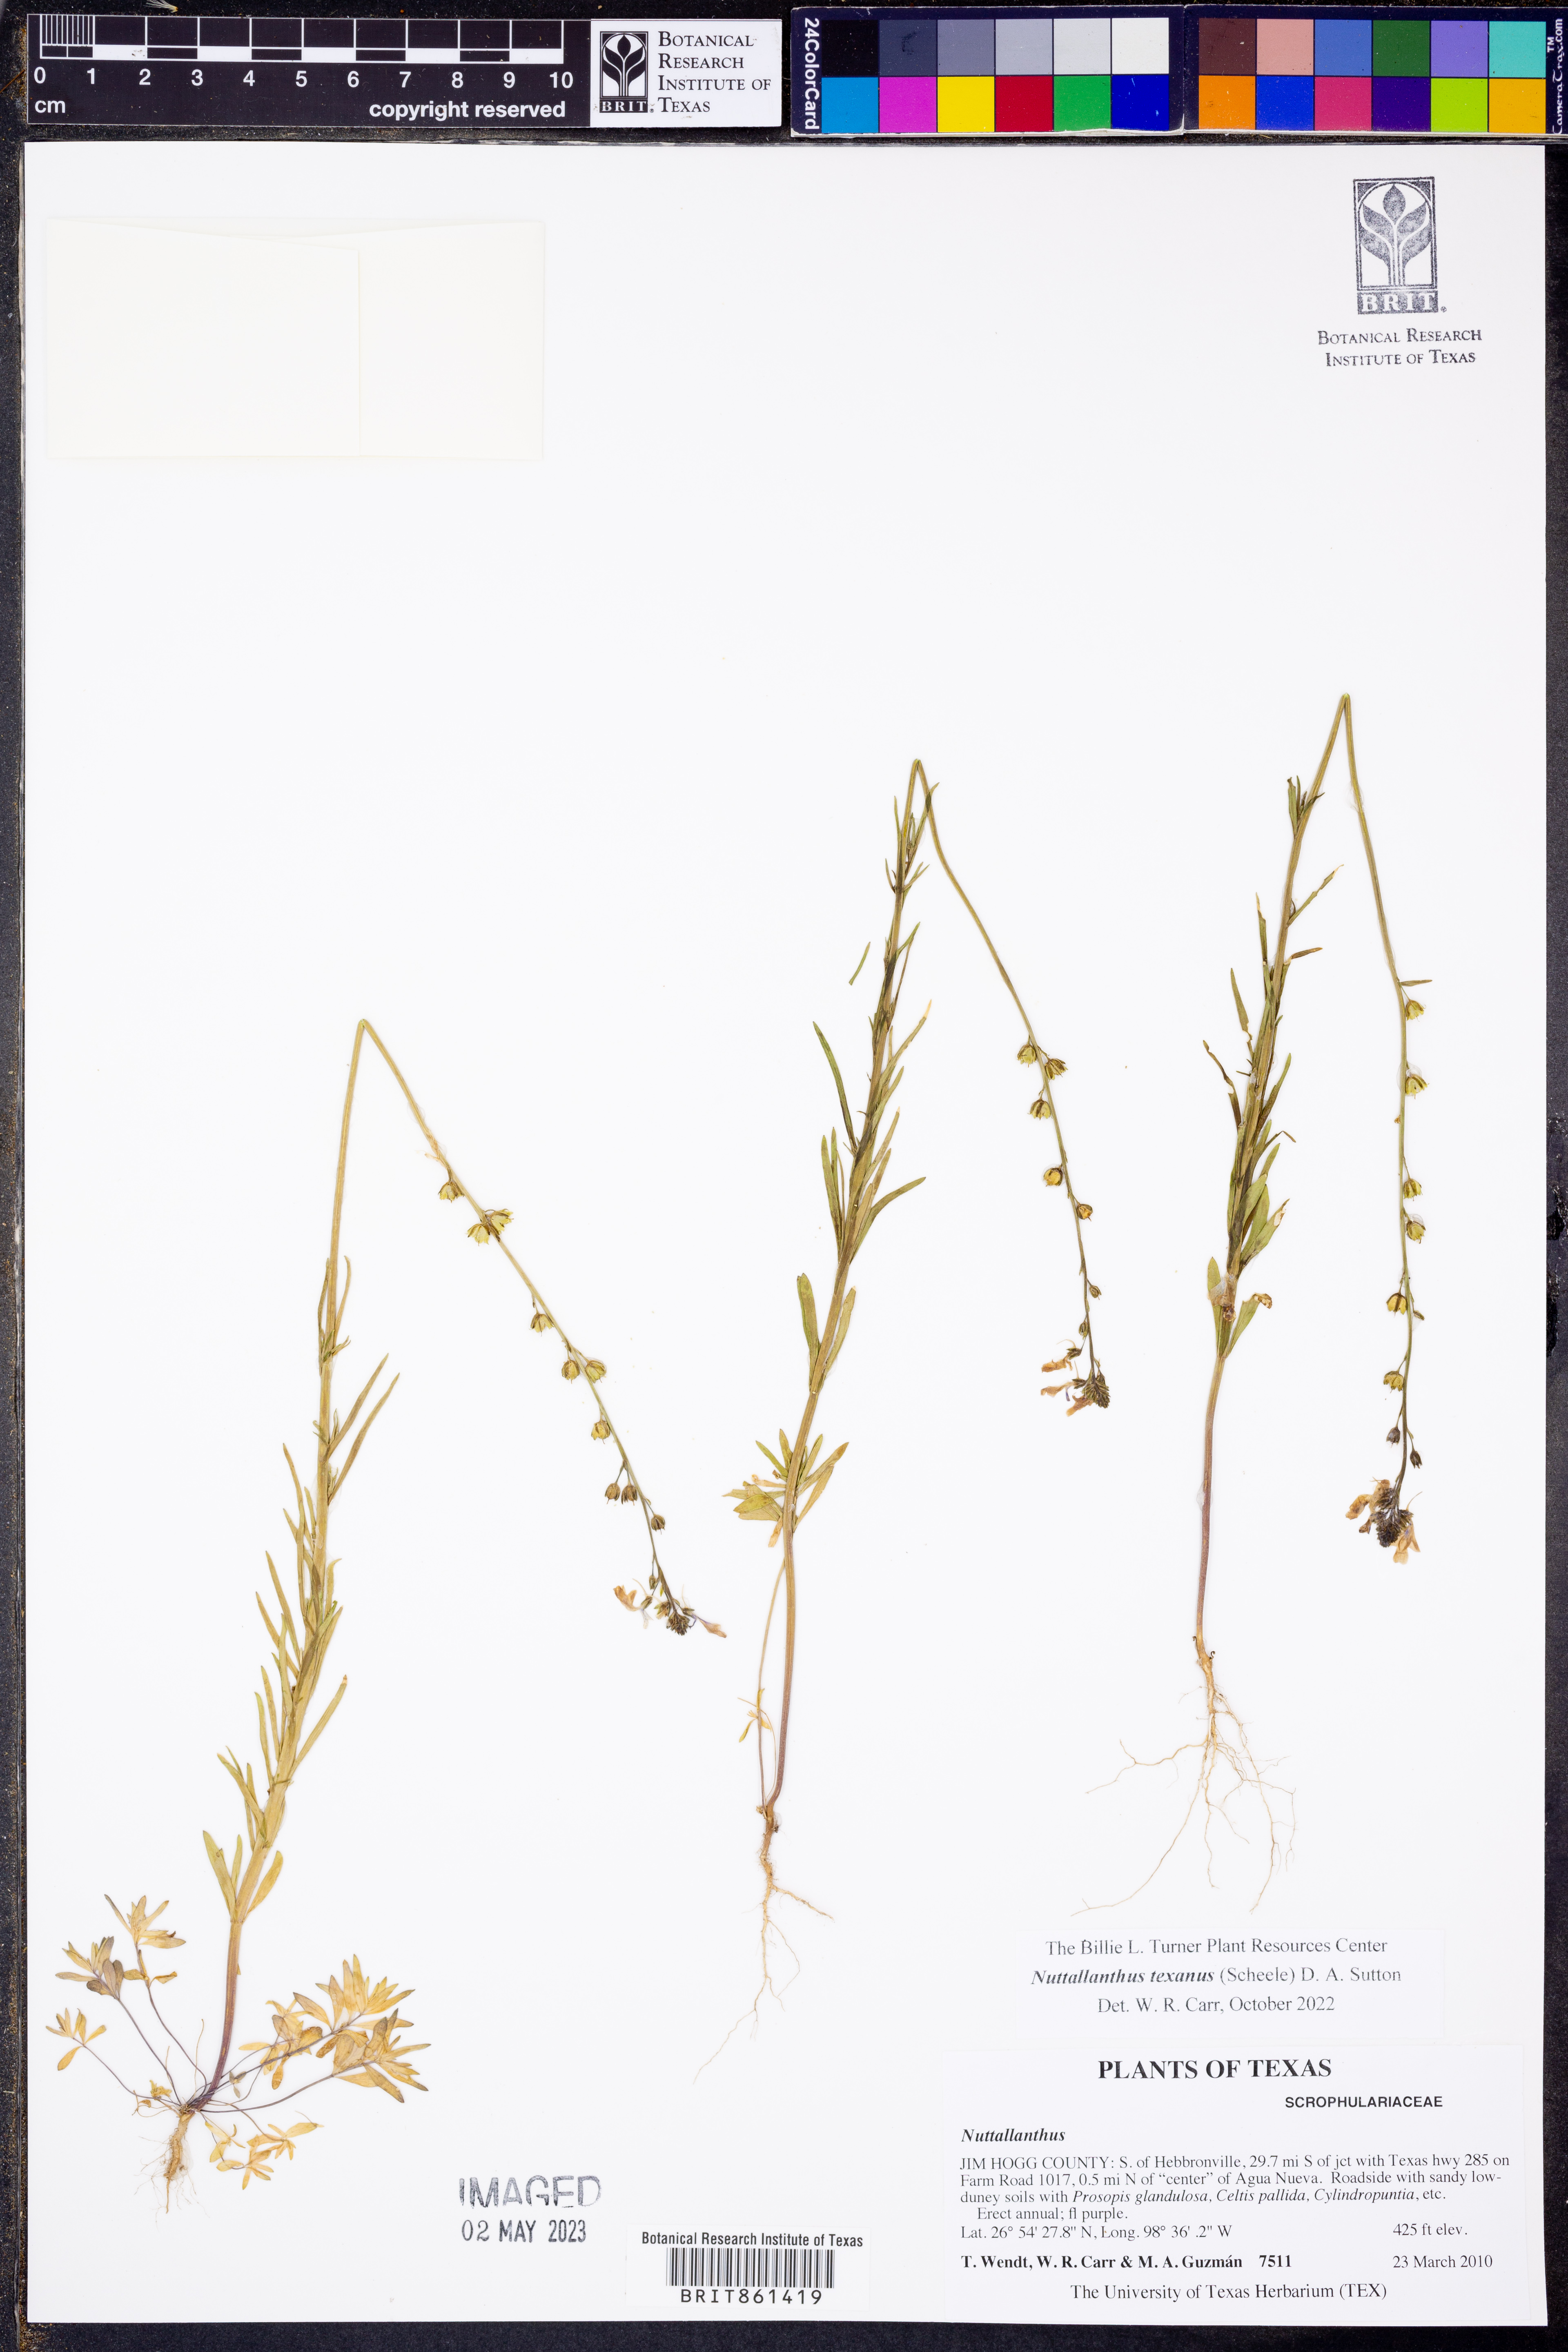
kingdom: Plantae
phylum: Tracheophyta
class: Magnoliopsida
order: Lamiales
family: Plantaginaceae
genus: Nuttallanthus
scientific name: Nuttallanthus texanus
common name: Texas toadflax
